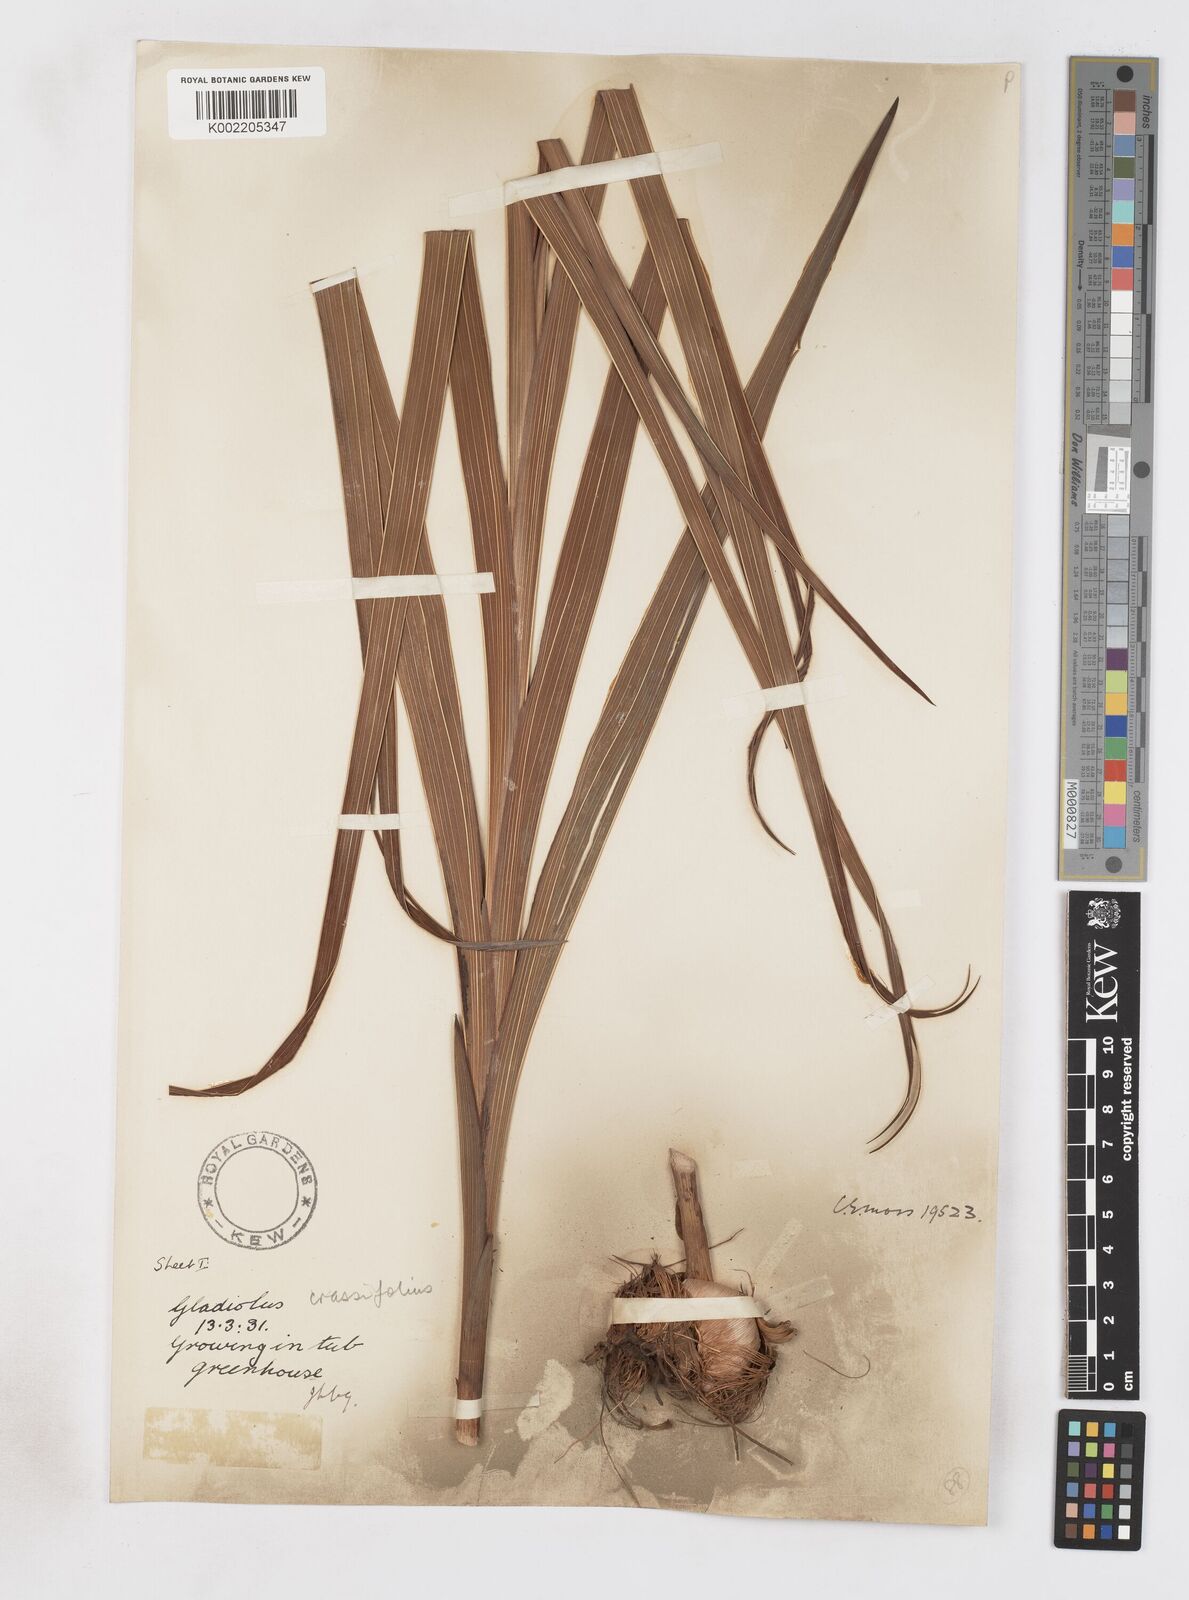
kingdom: Plantae
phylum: Tracheophyta
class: Liliopsida
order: Asparagales
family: Iridaceae
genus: Gladiolus
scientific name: Gladiolus crassifolius
